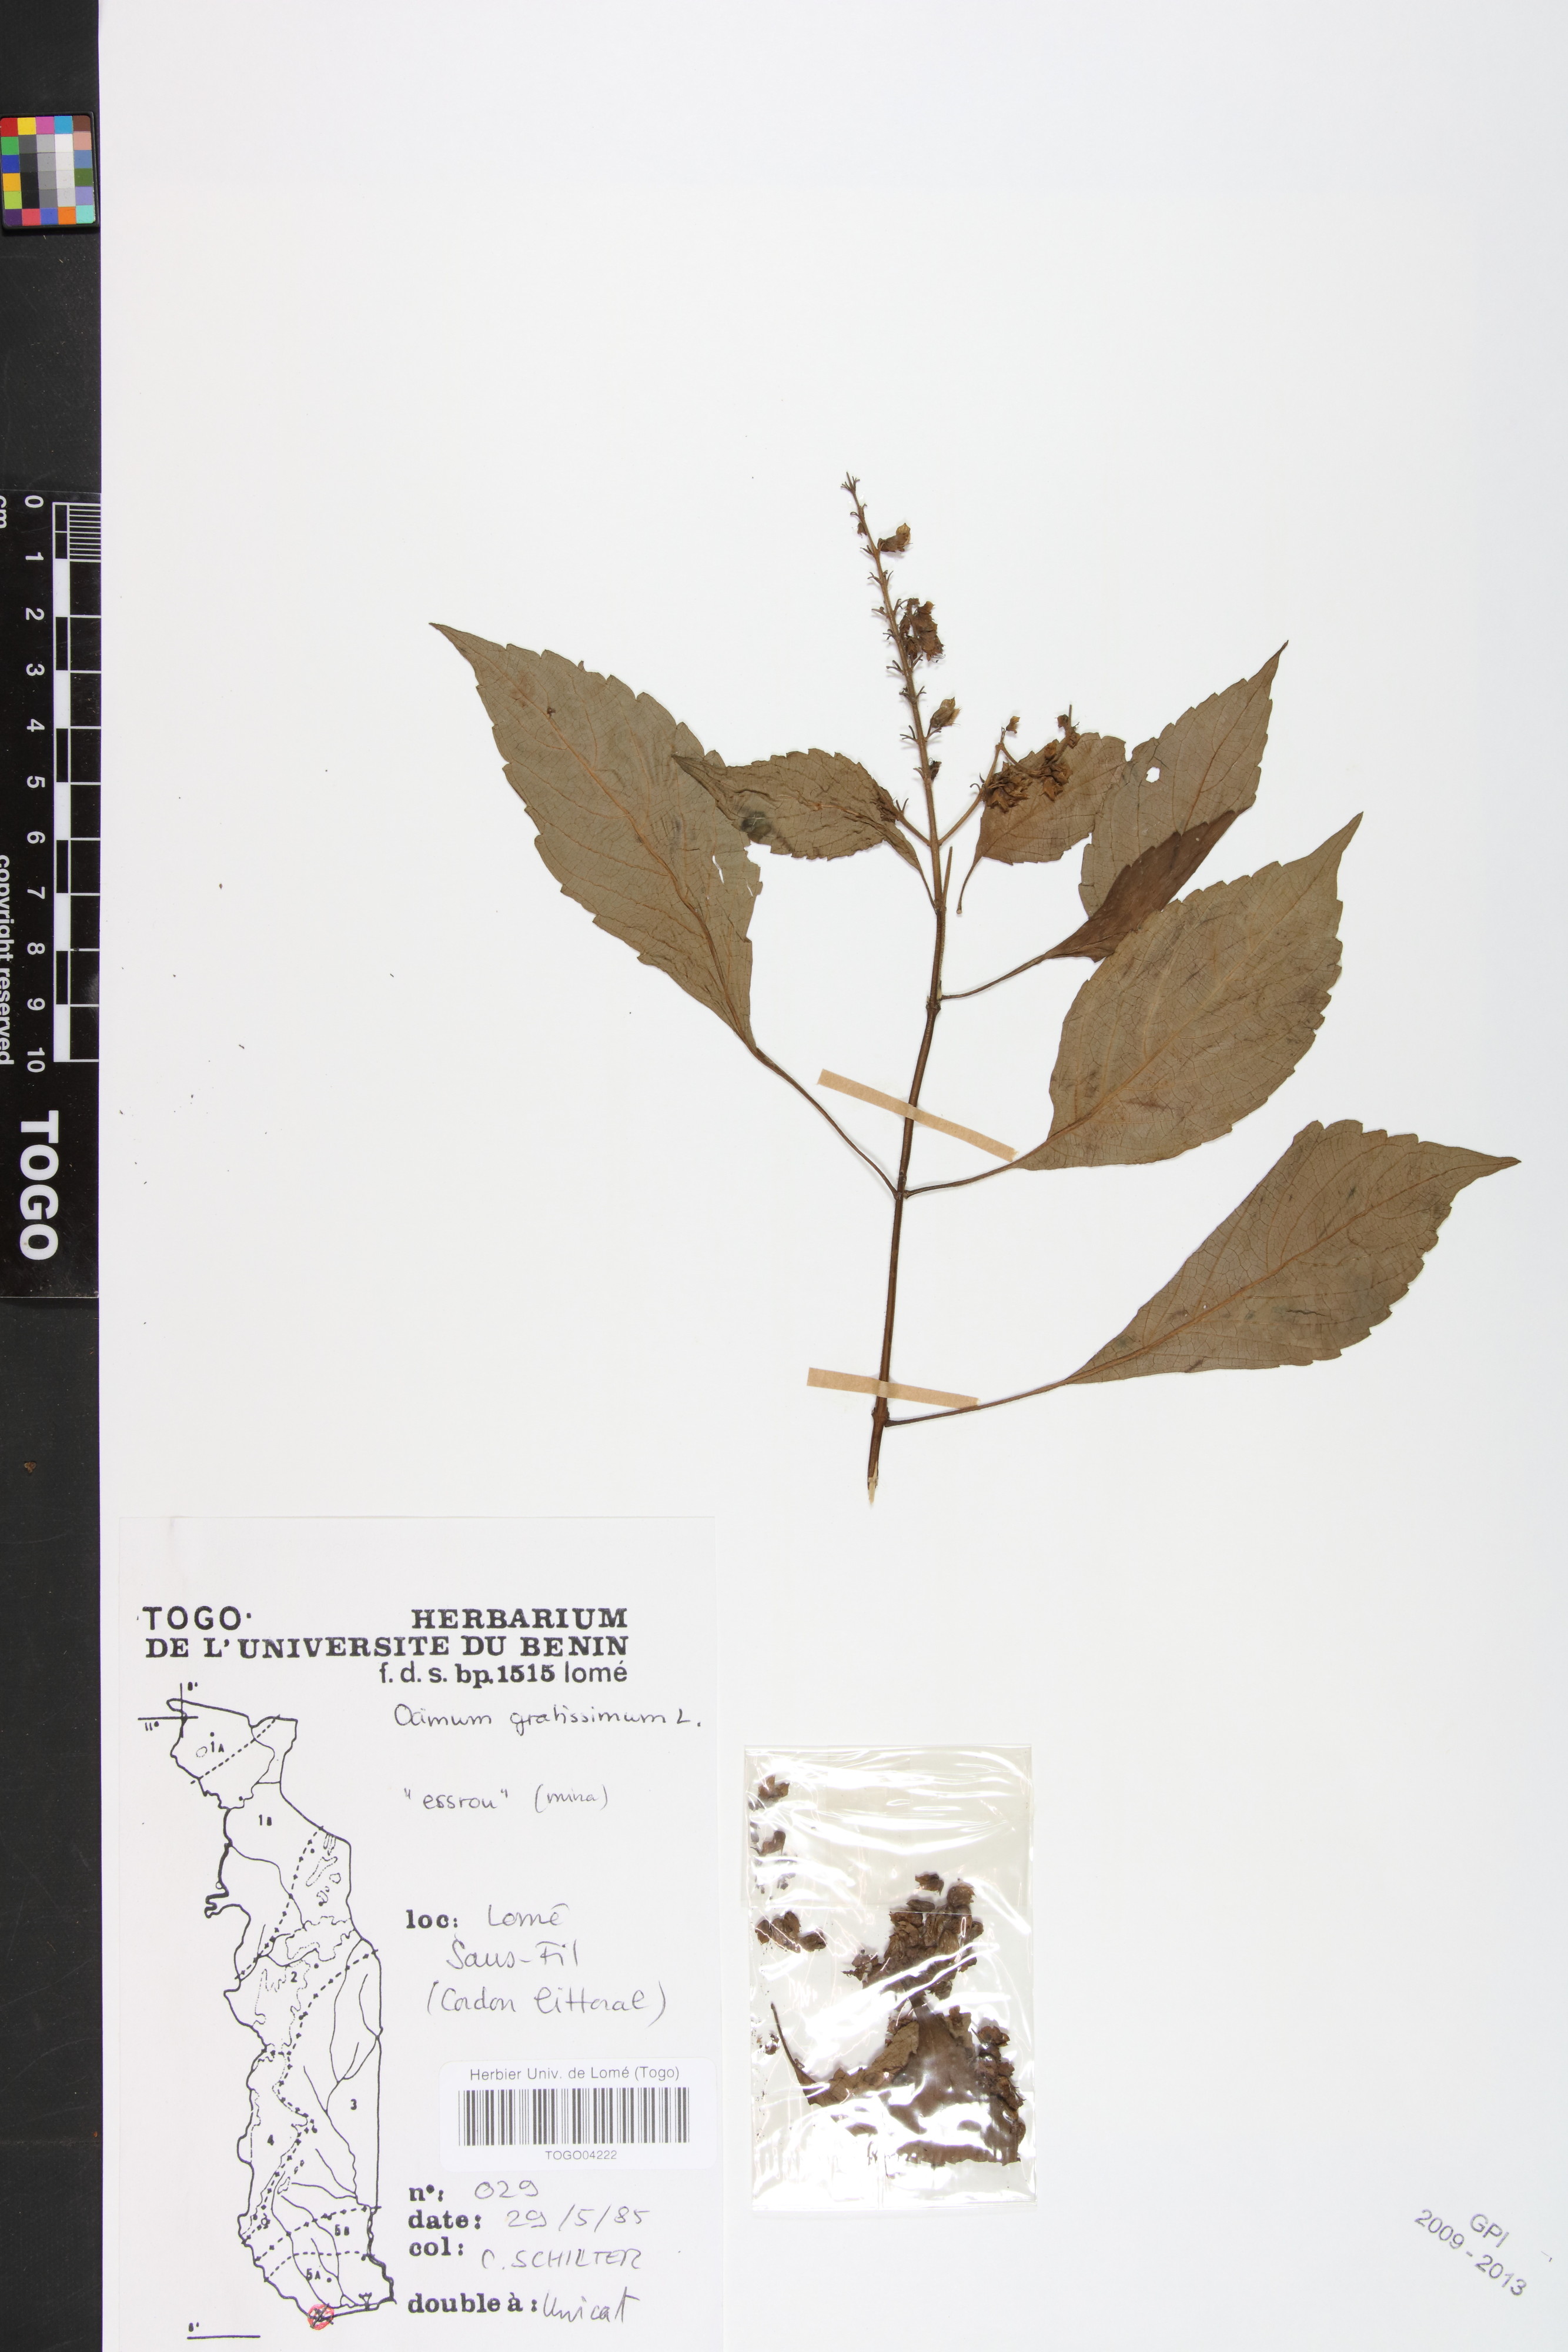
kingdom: Plantae
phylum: Tracheophyta
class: Magnoliopsida
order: Lamiales
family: Lamiaceae
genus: Ocimum
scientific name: Ocimum gratissimum
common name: African basil
